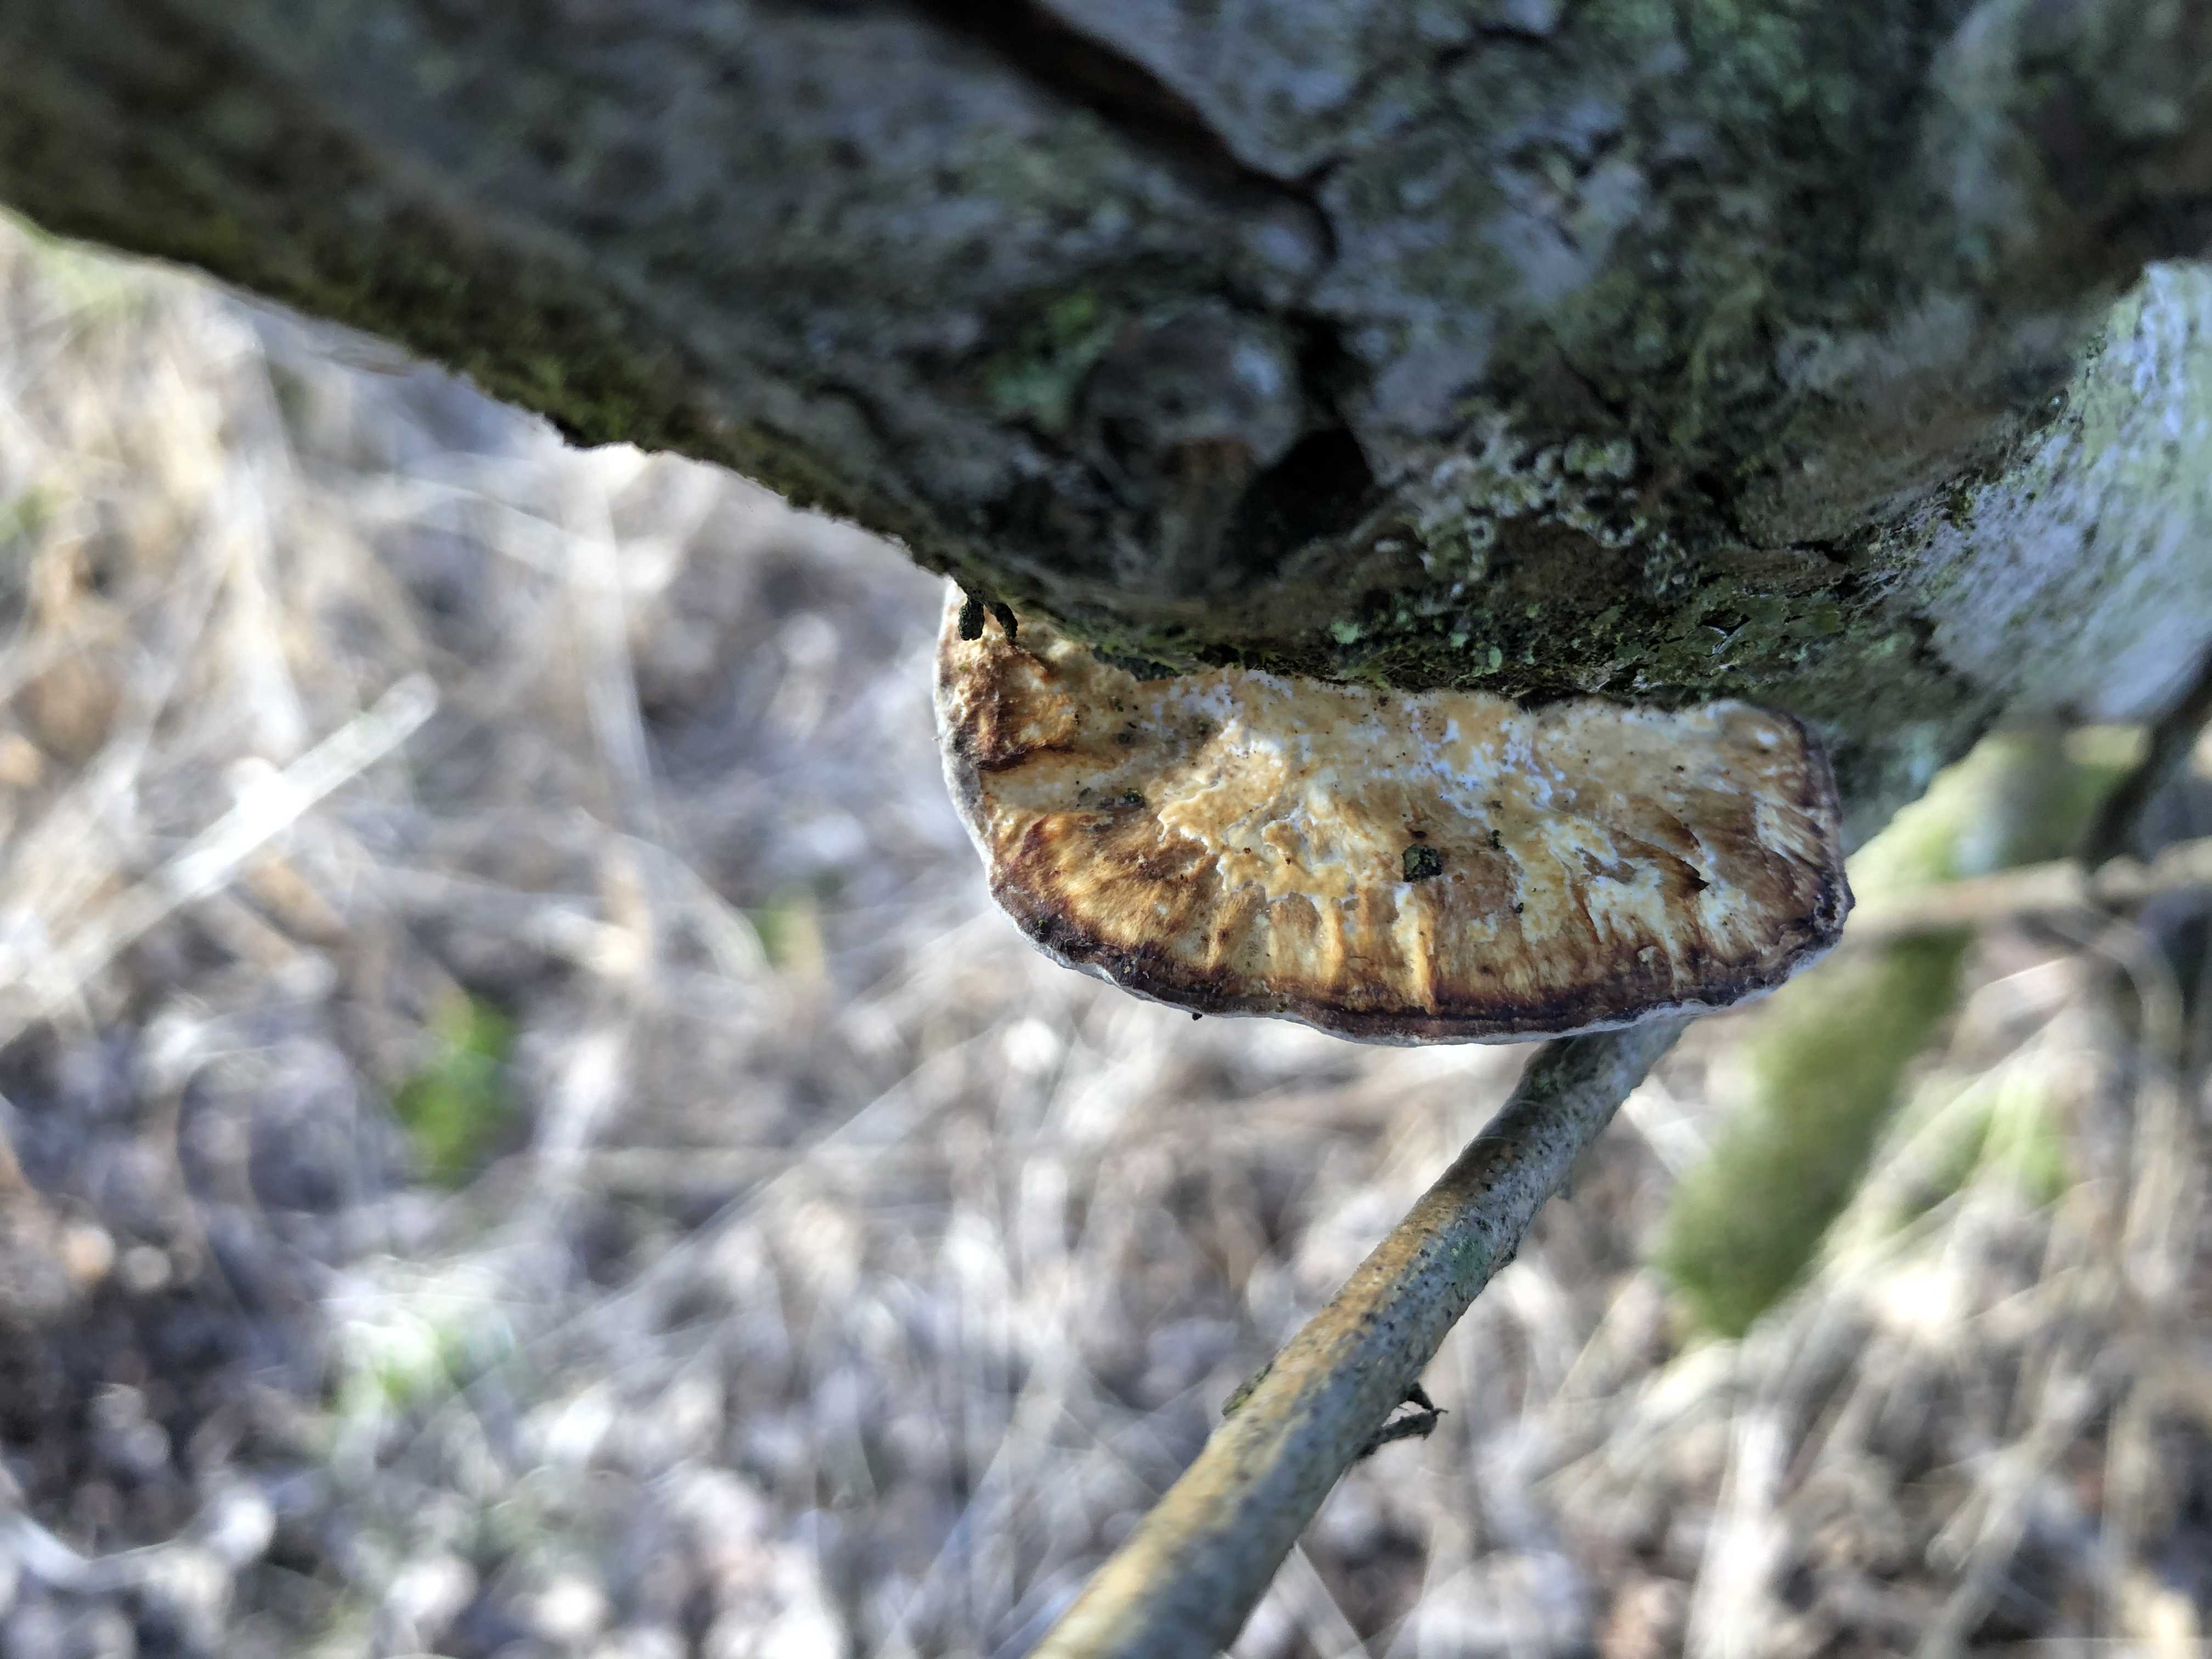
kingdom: Fungi
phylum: Basidiomycota
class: Agaricomycetes
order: Polyporales
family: Polyporaceae
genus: Daedaleopsis
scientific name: Daedaleopsis confragosa
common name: rødmende læderporesvamp
